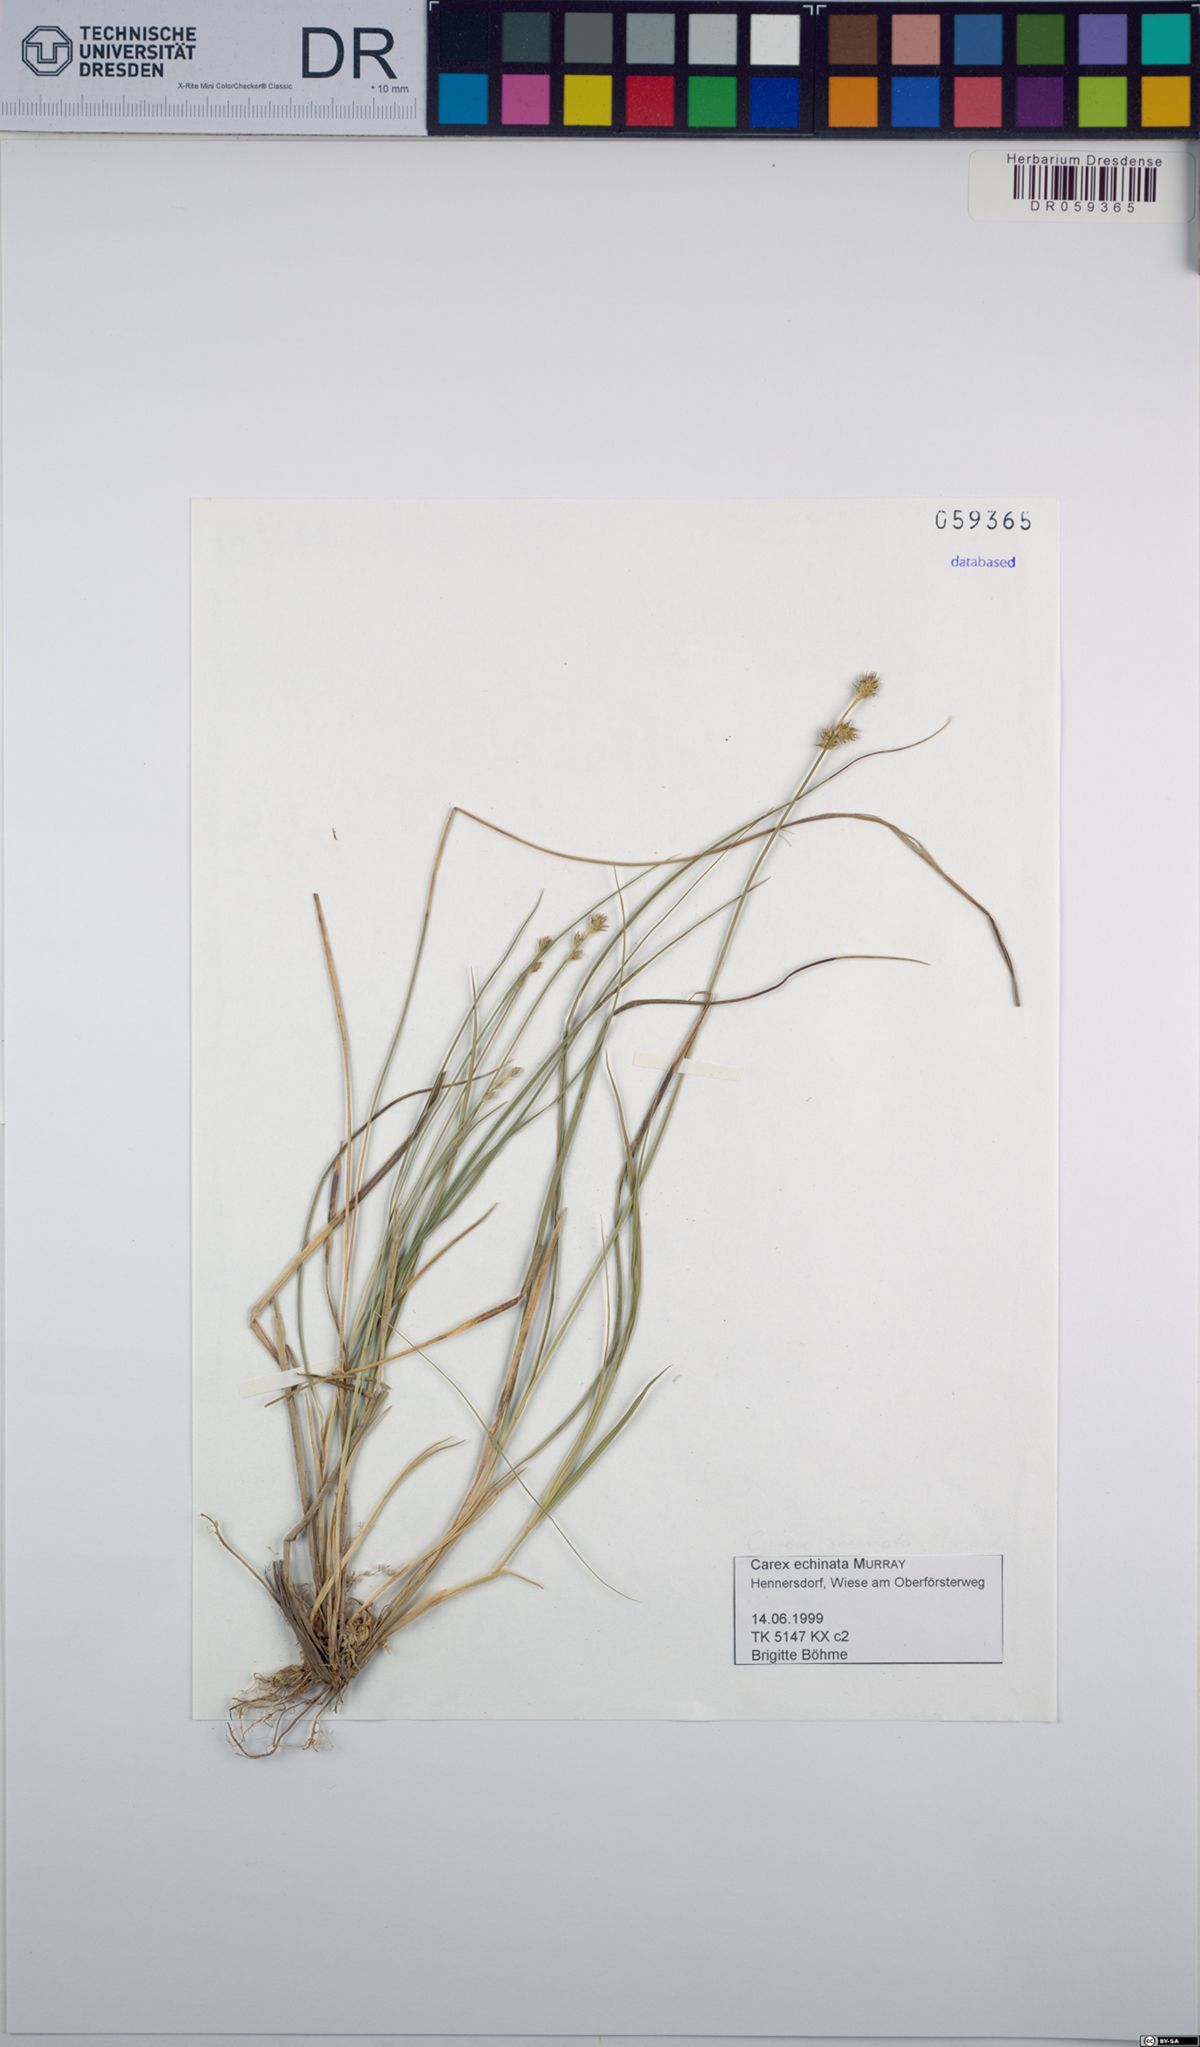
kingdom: Plantae
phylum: Tracheophyta
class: Liliopsida
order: Poales
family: Cyperaceae
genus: Carex
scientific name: Carex echinata
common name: Star sedge
